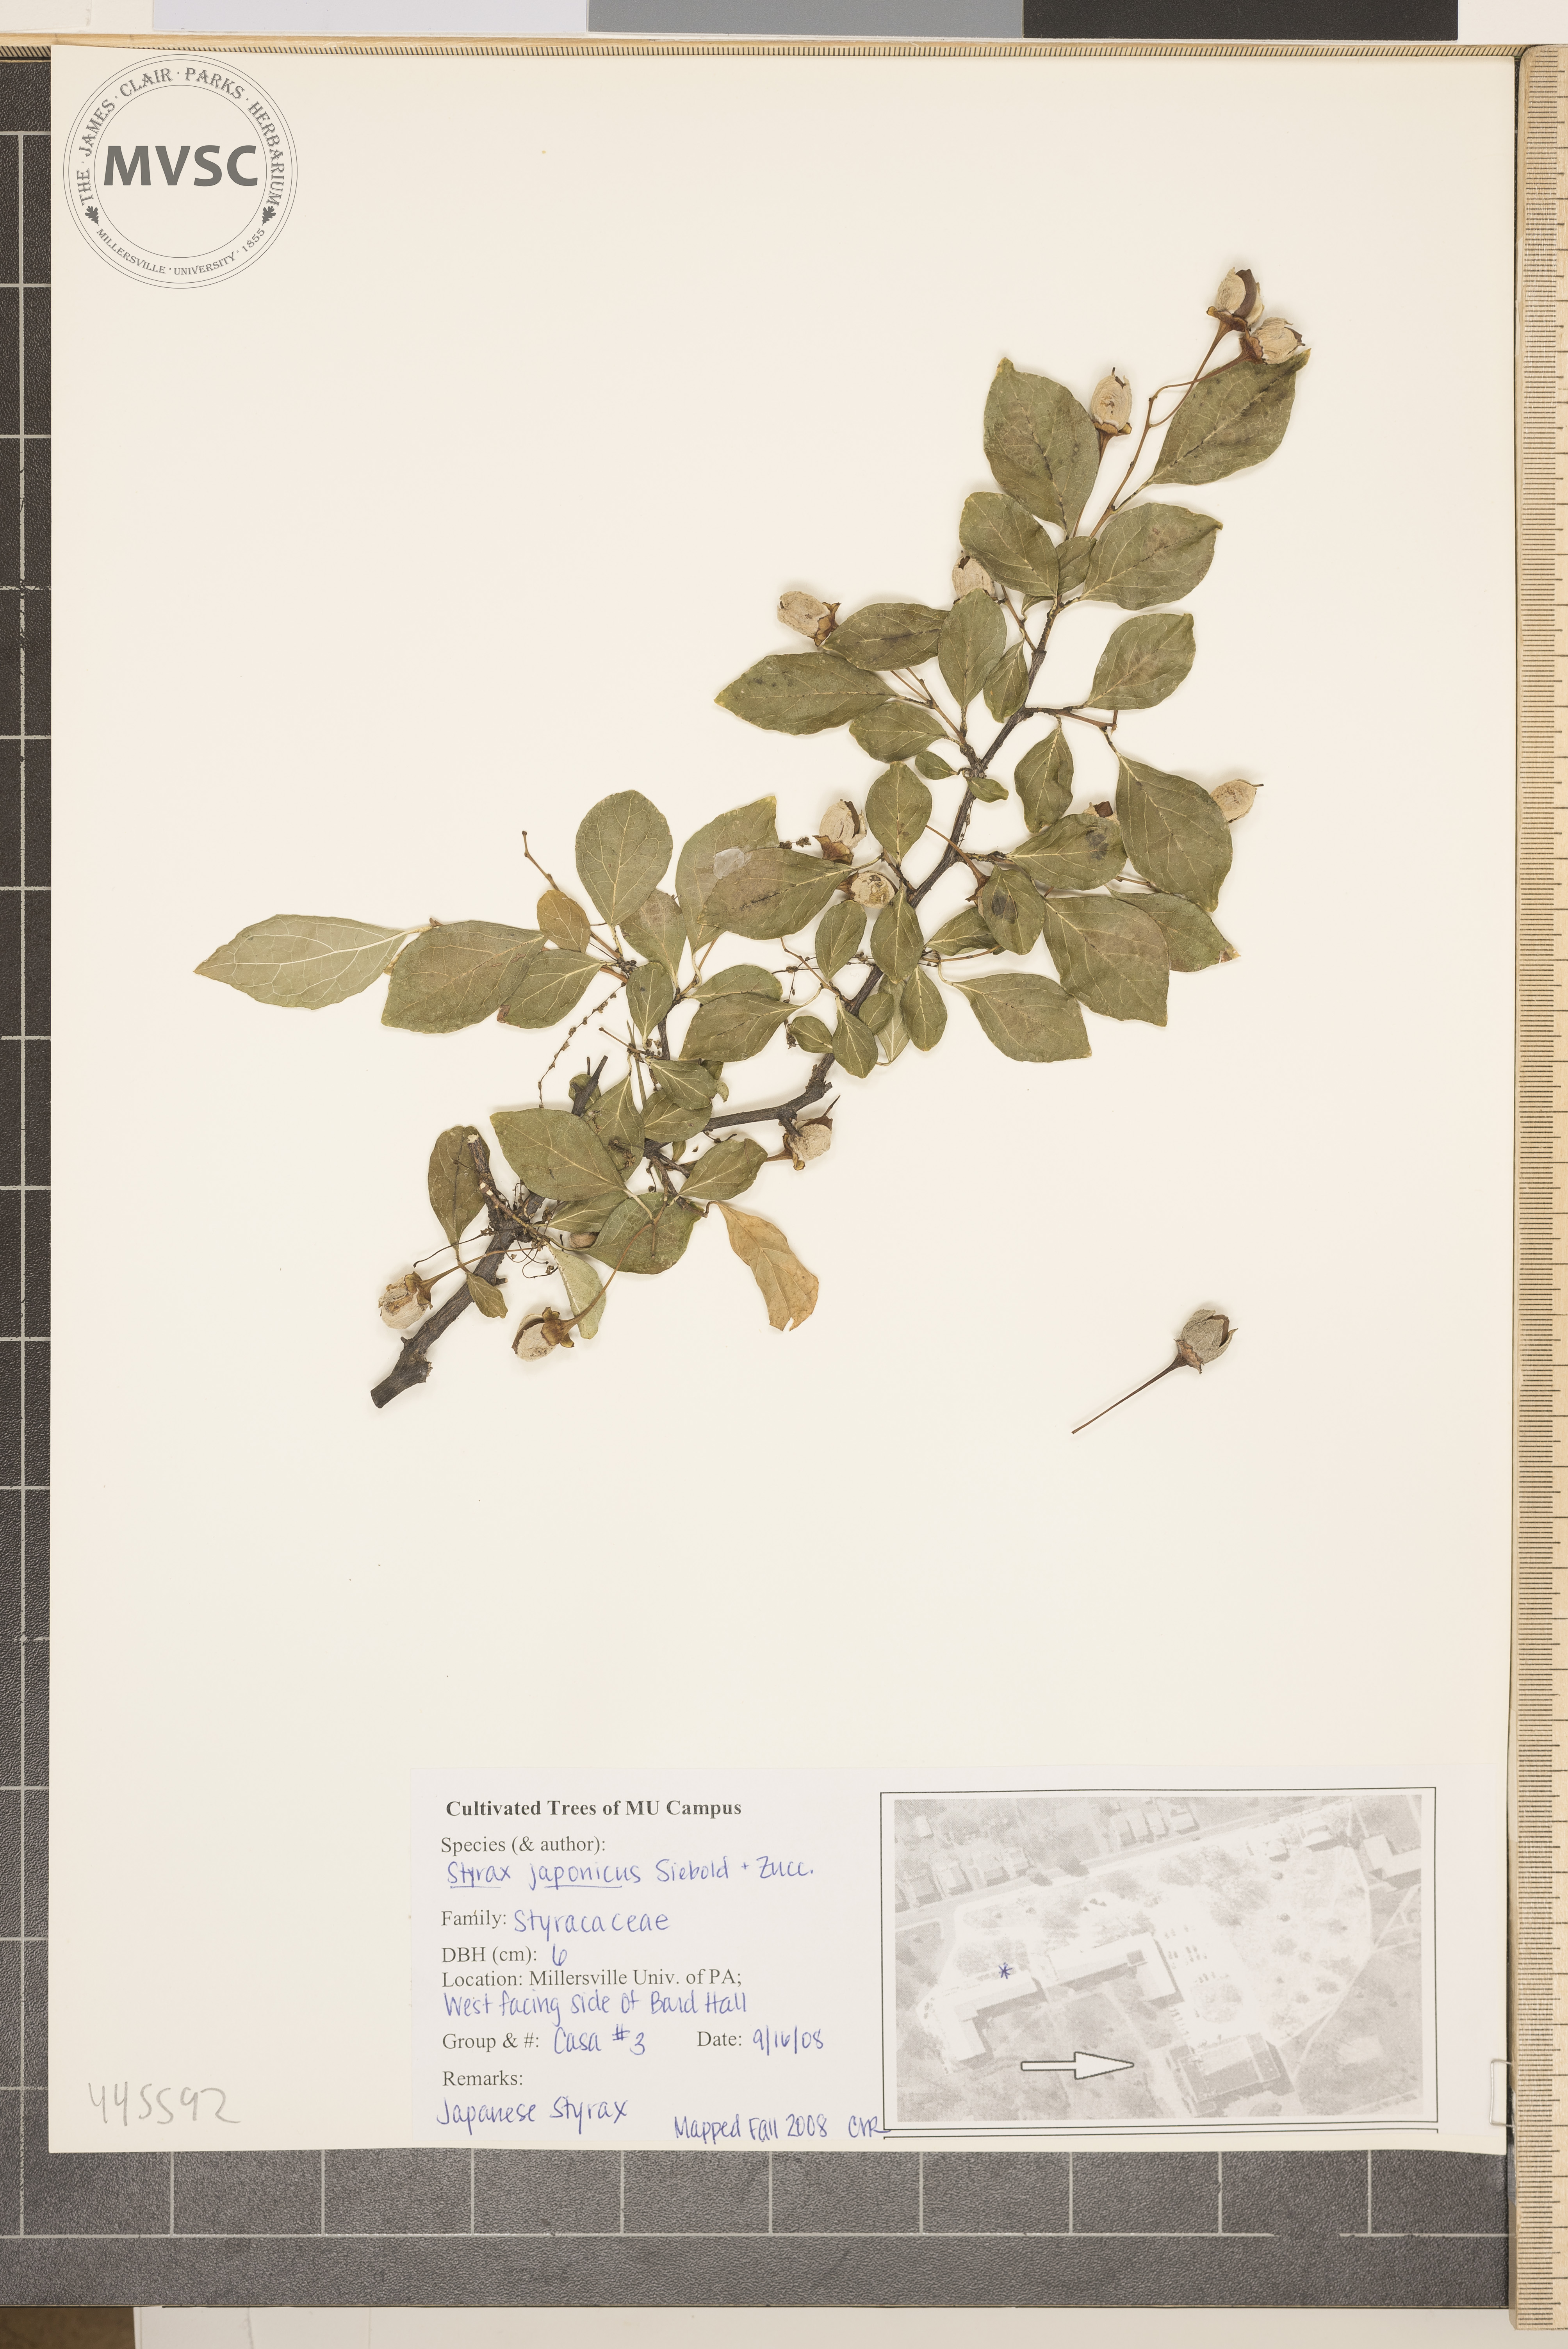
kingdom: Plantae
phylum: Tracheophyta
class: Magnoliopsida
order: Ericales
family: Styracaceae
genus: Styrax
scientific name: Styrax japonicus
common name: Japanese snowbell
